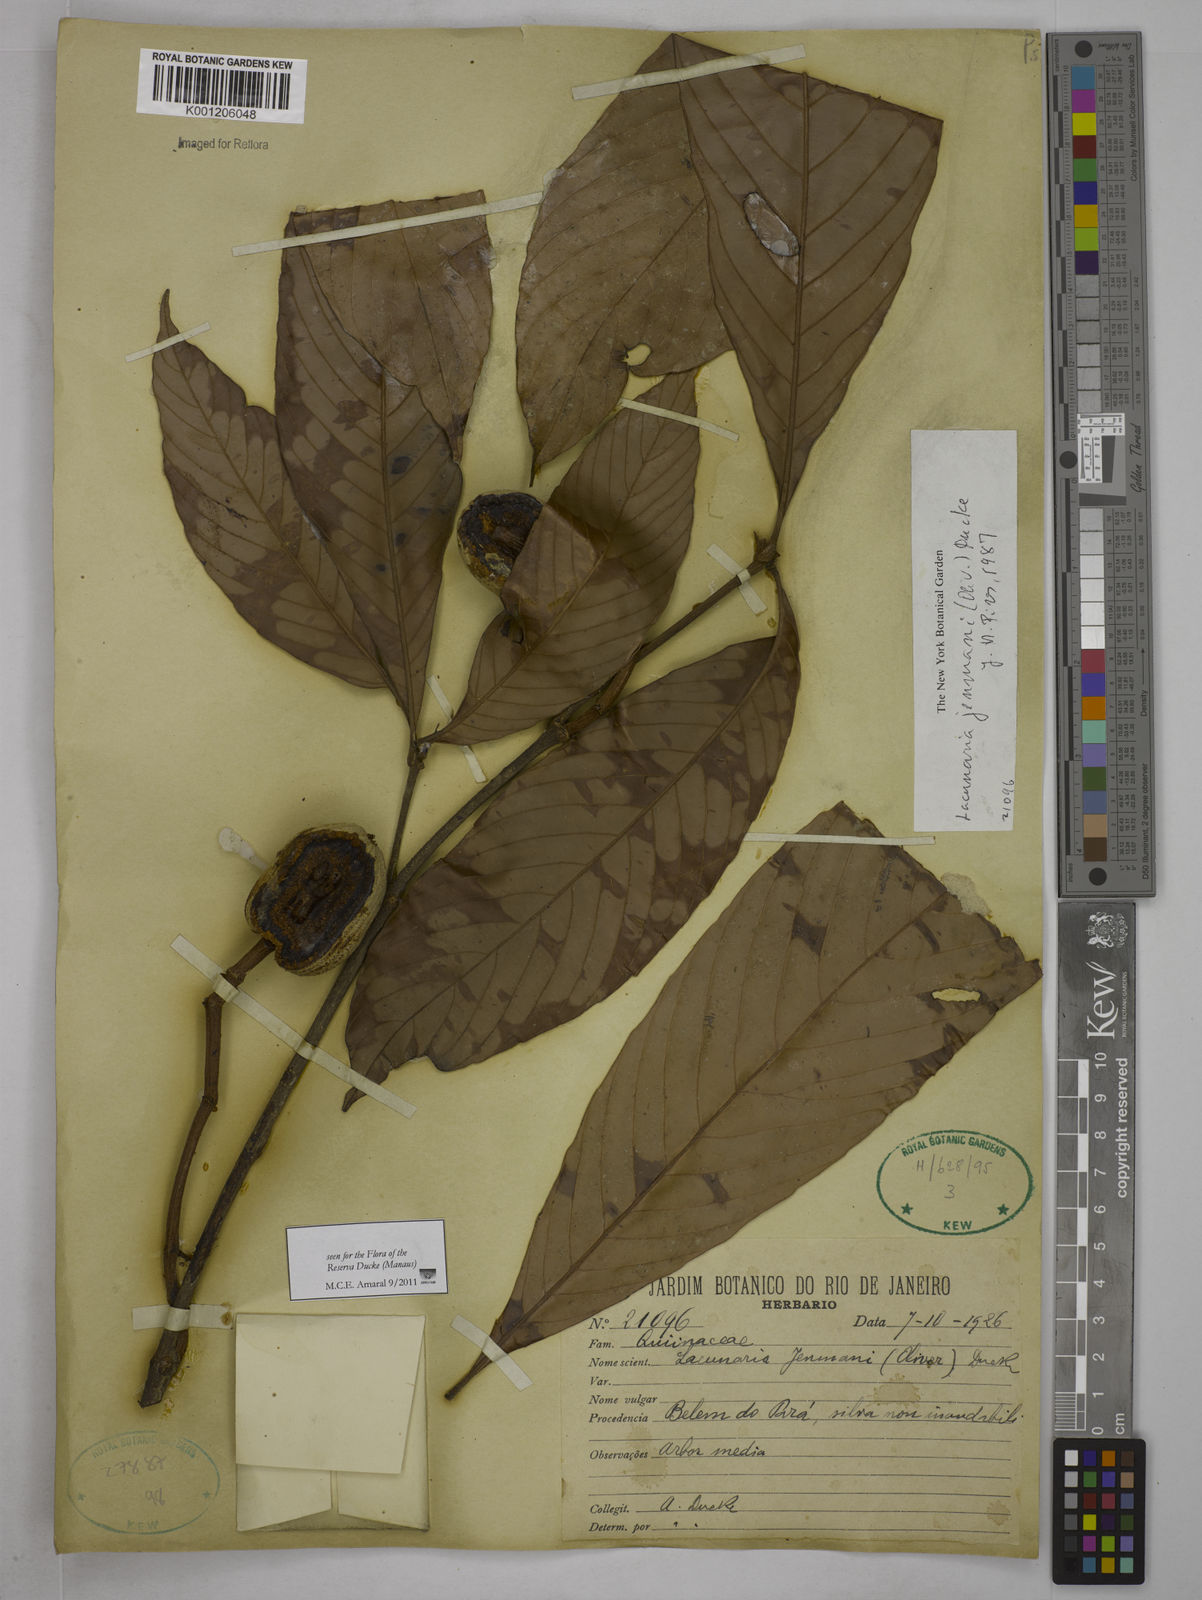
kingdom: Plantae
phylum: Tracheophyta
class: Magnoliopsida
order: Malpighiales
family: Quiinaceae
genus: Lacunaria
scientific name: Lacunaria jenmanii
